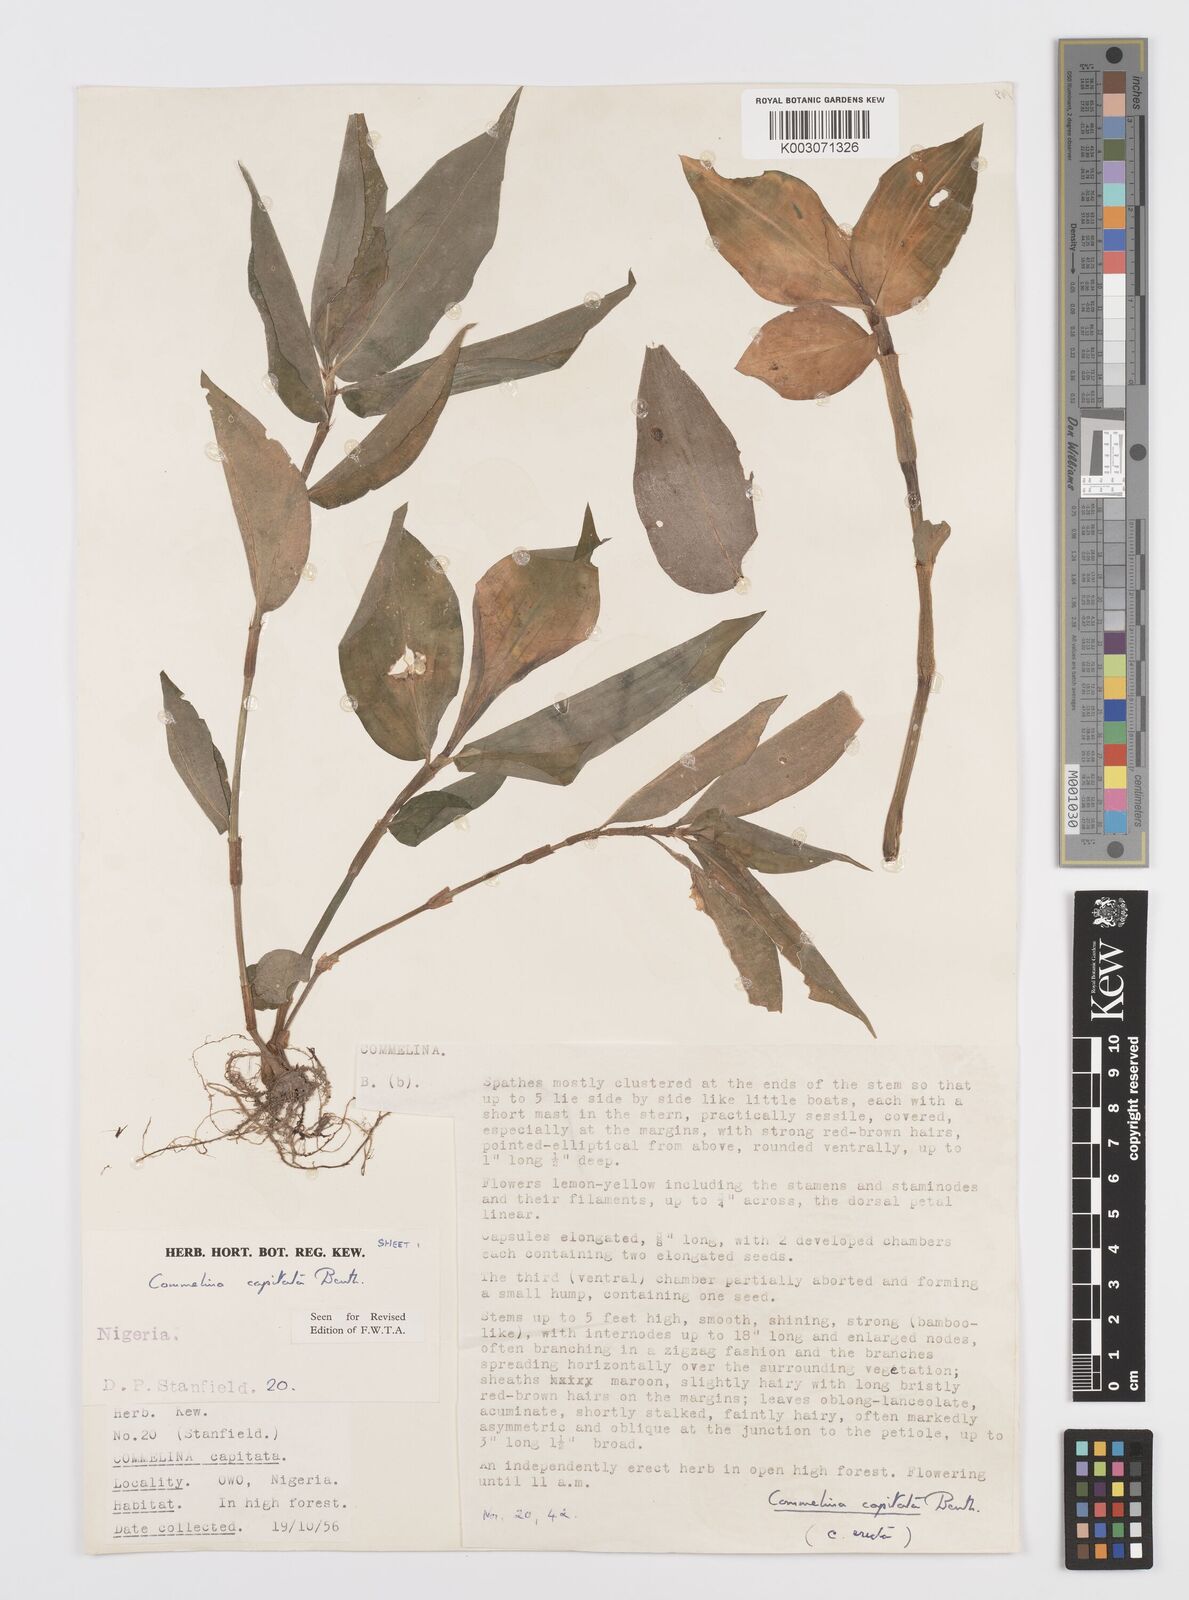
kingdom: Plantae
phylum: Tracheophyta
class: Liliopsida
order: Commelinales
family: Commelinaceae
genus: Commelina
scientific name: Commelina capitata
